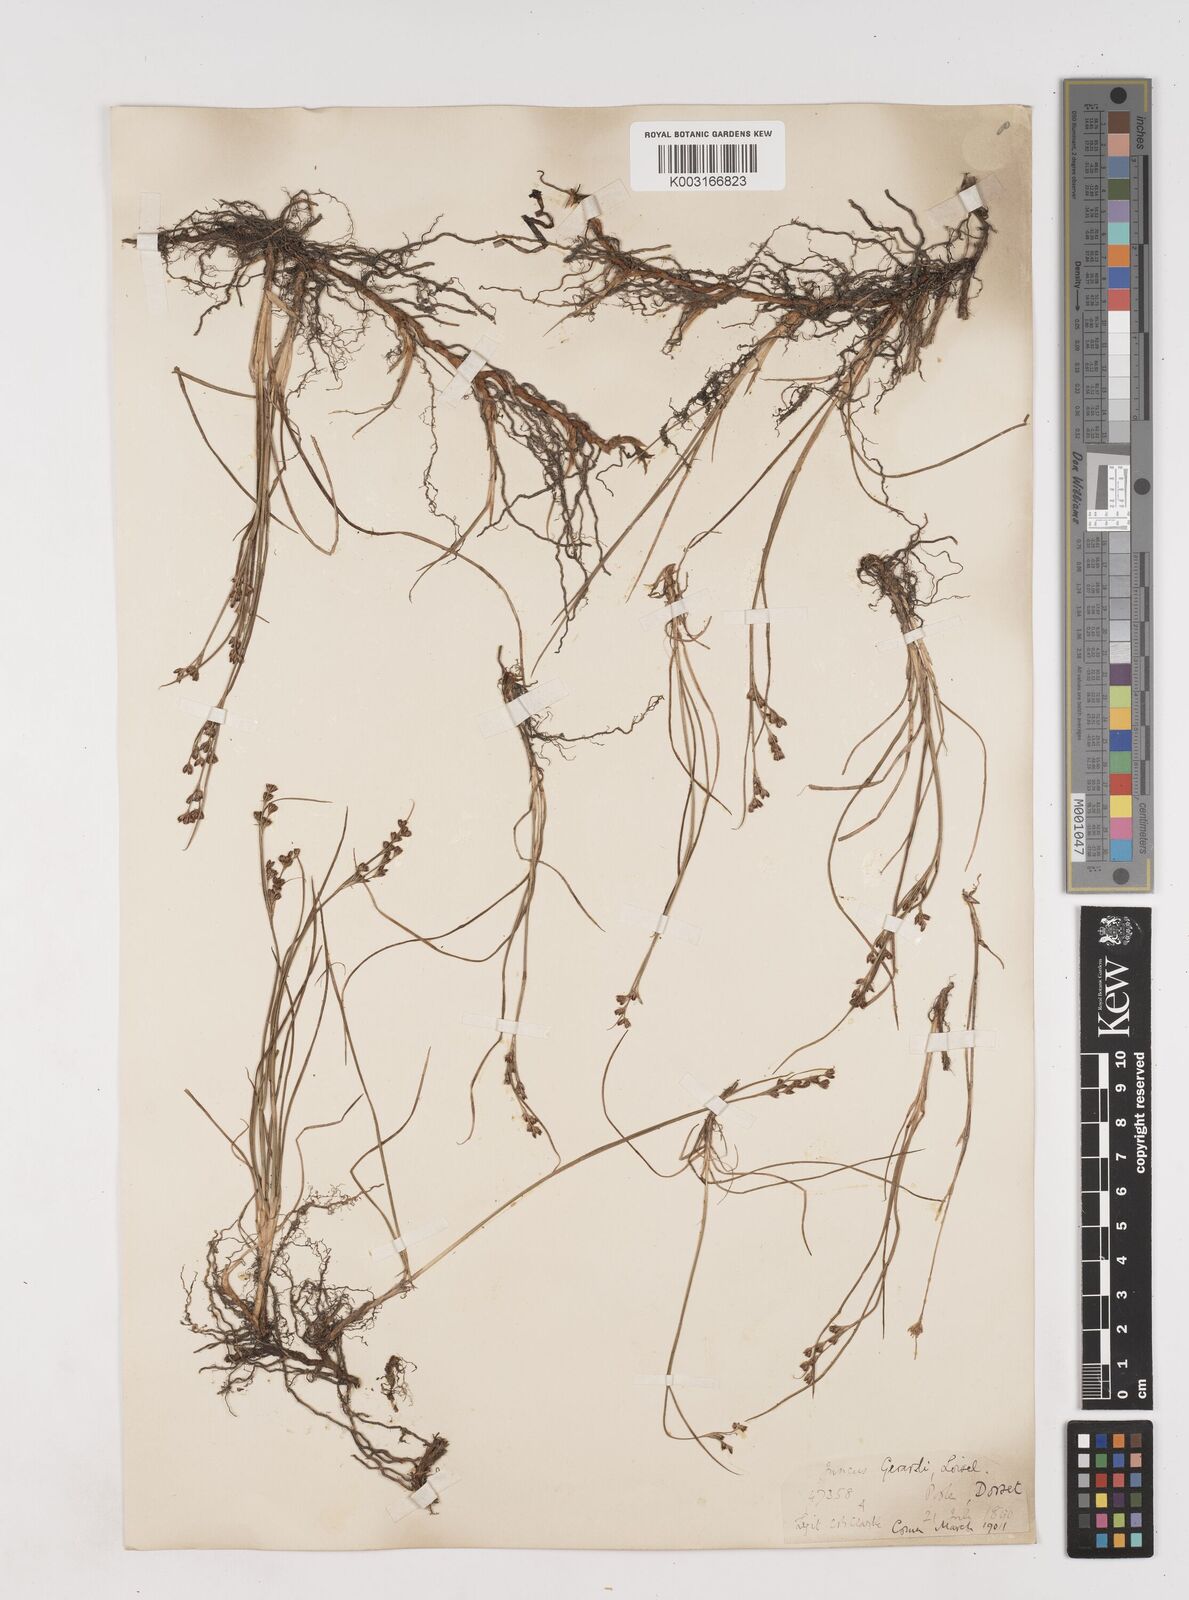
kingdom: Plantae
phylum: Tracheophyta
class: Liliopsida
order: Poales
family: Juncaceae
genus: Juncus
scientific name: Juncus gerardi
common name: Saltmarsh rush
